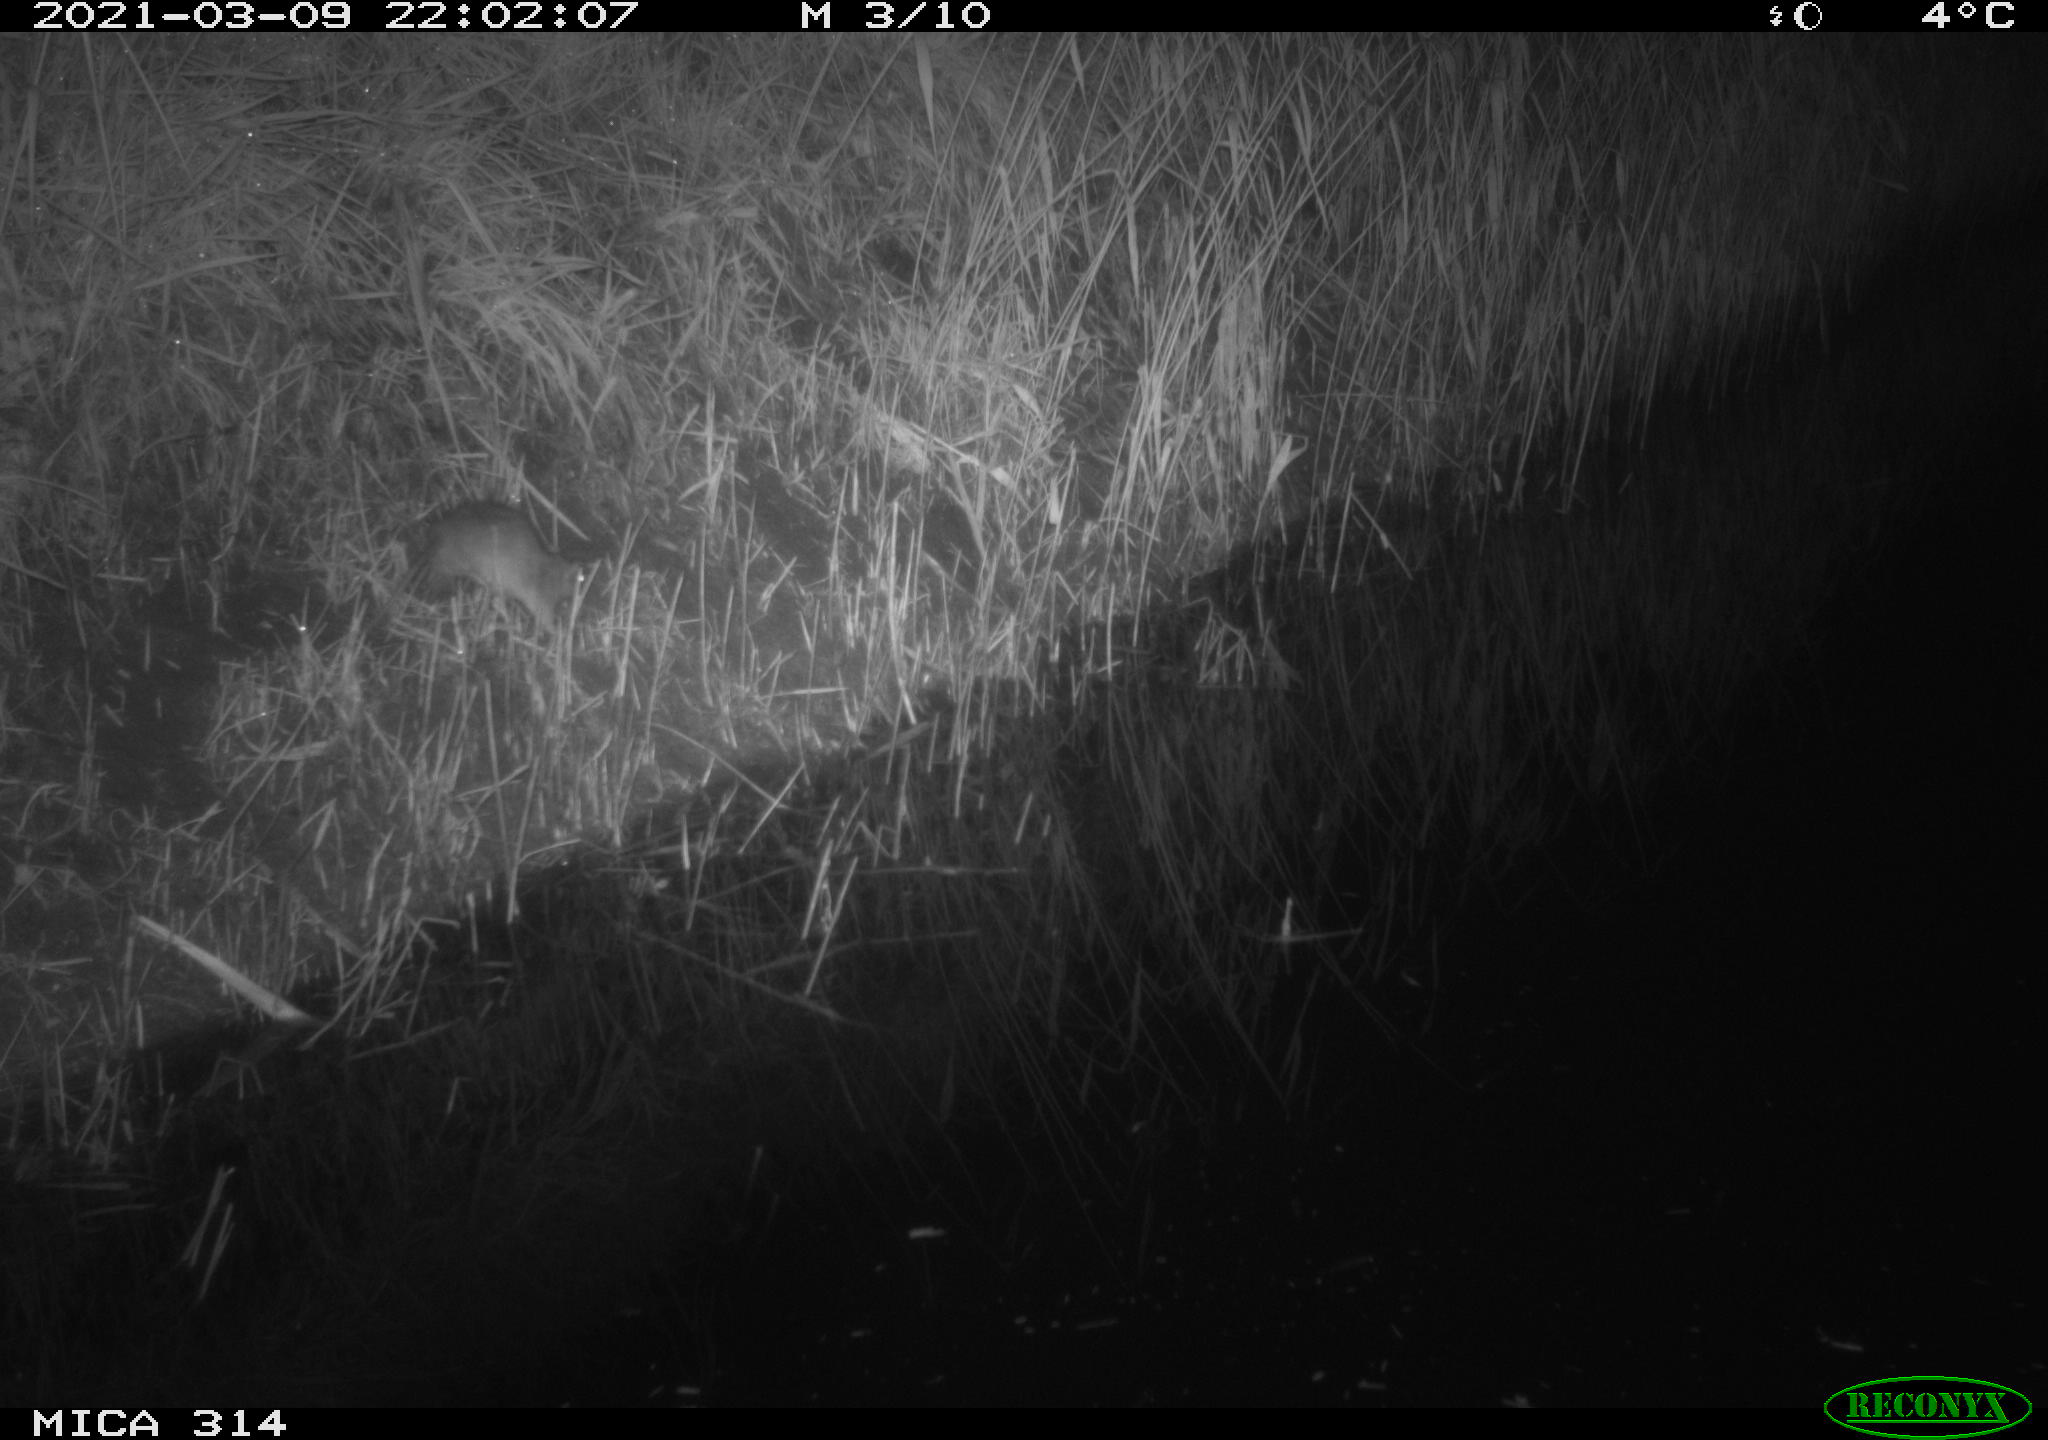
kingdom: Animalia
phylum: Chordata
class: Mammalia
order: Rodentia
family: Muridae
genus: Rattus
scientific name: Rattus norvegicus
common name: Brown rat
